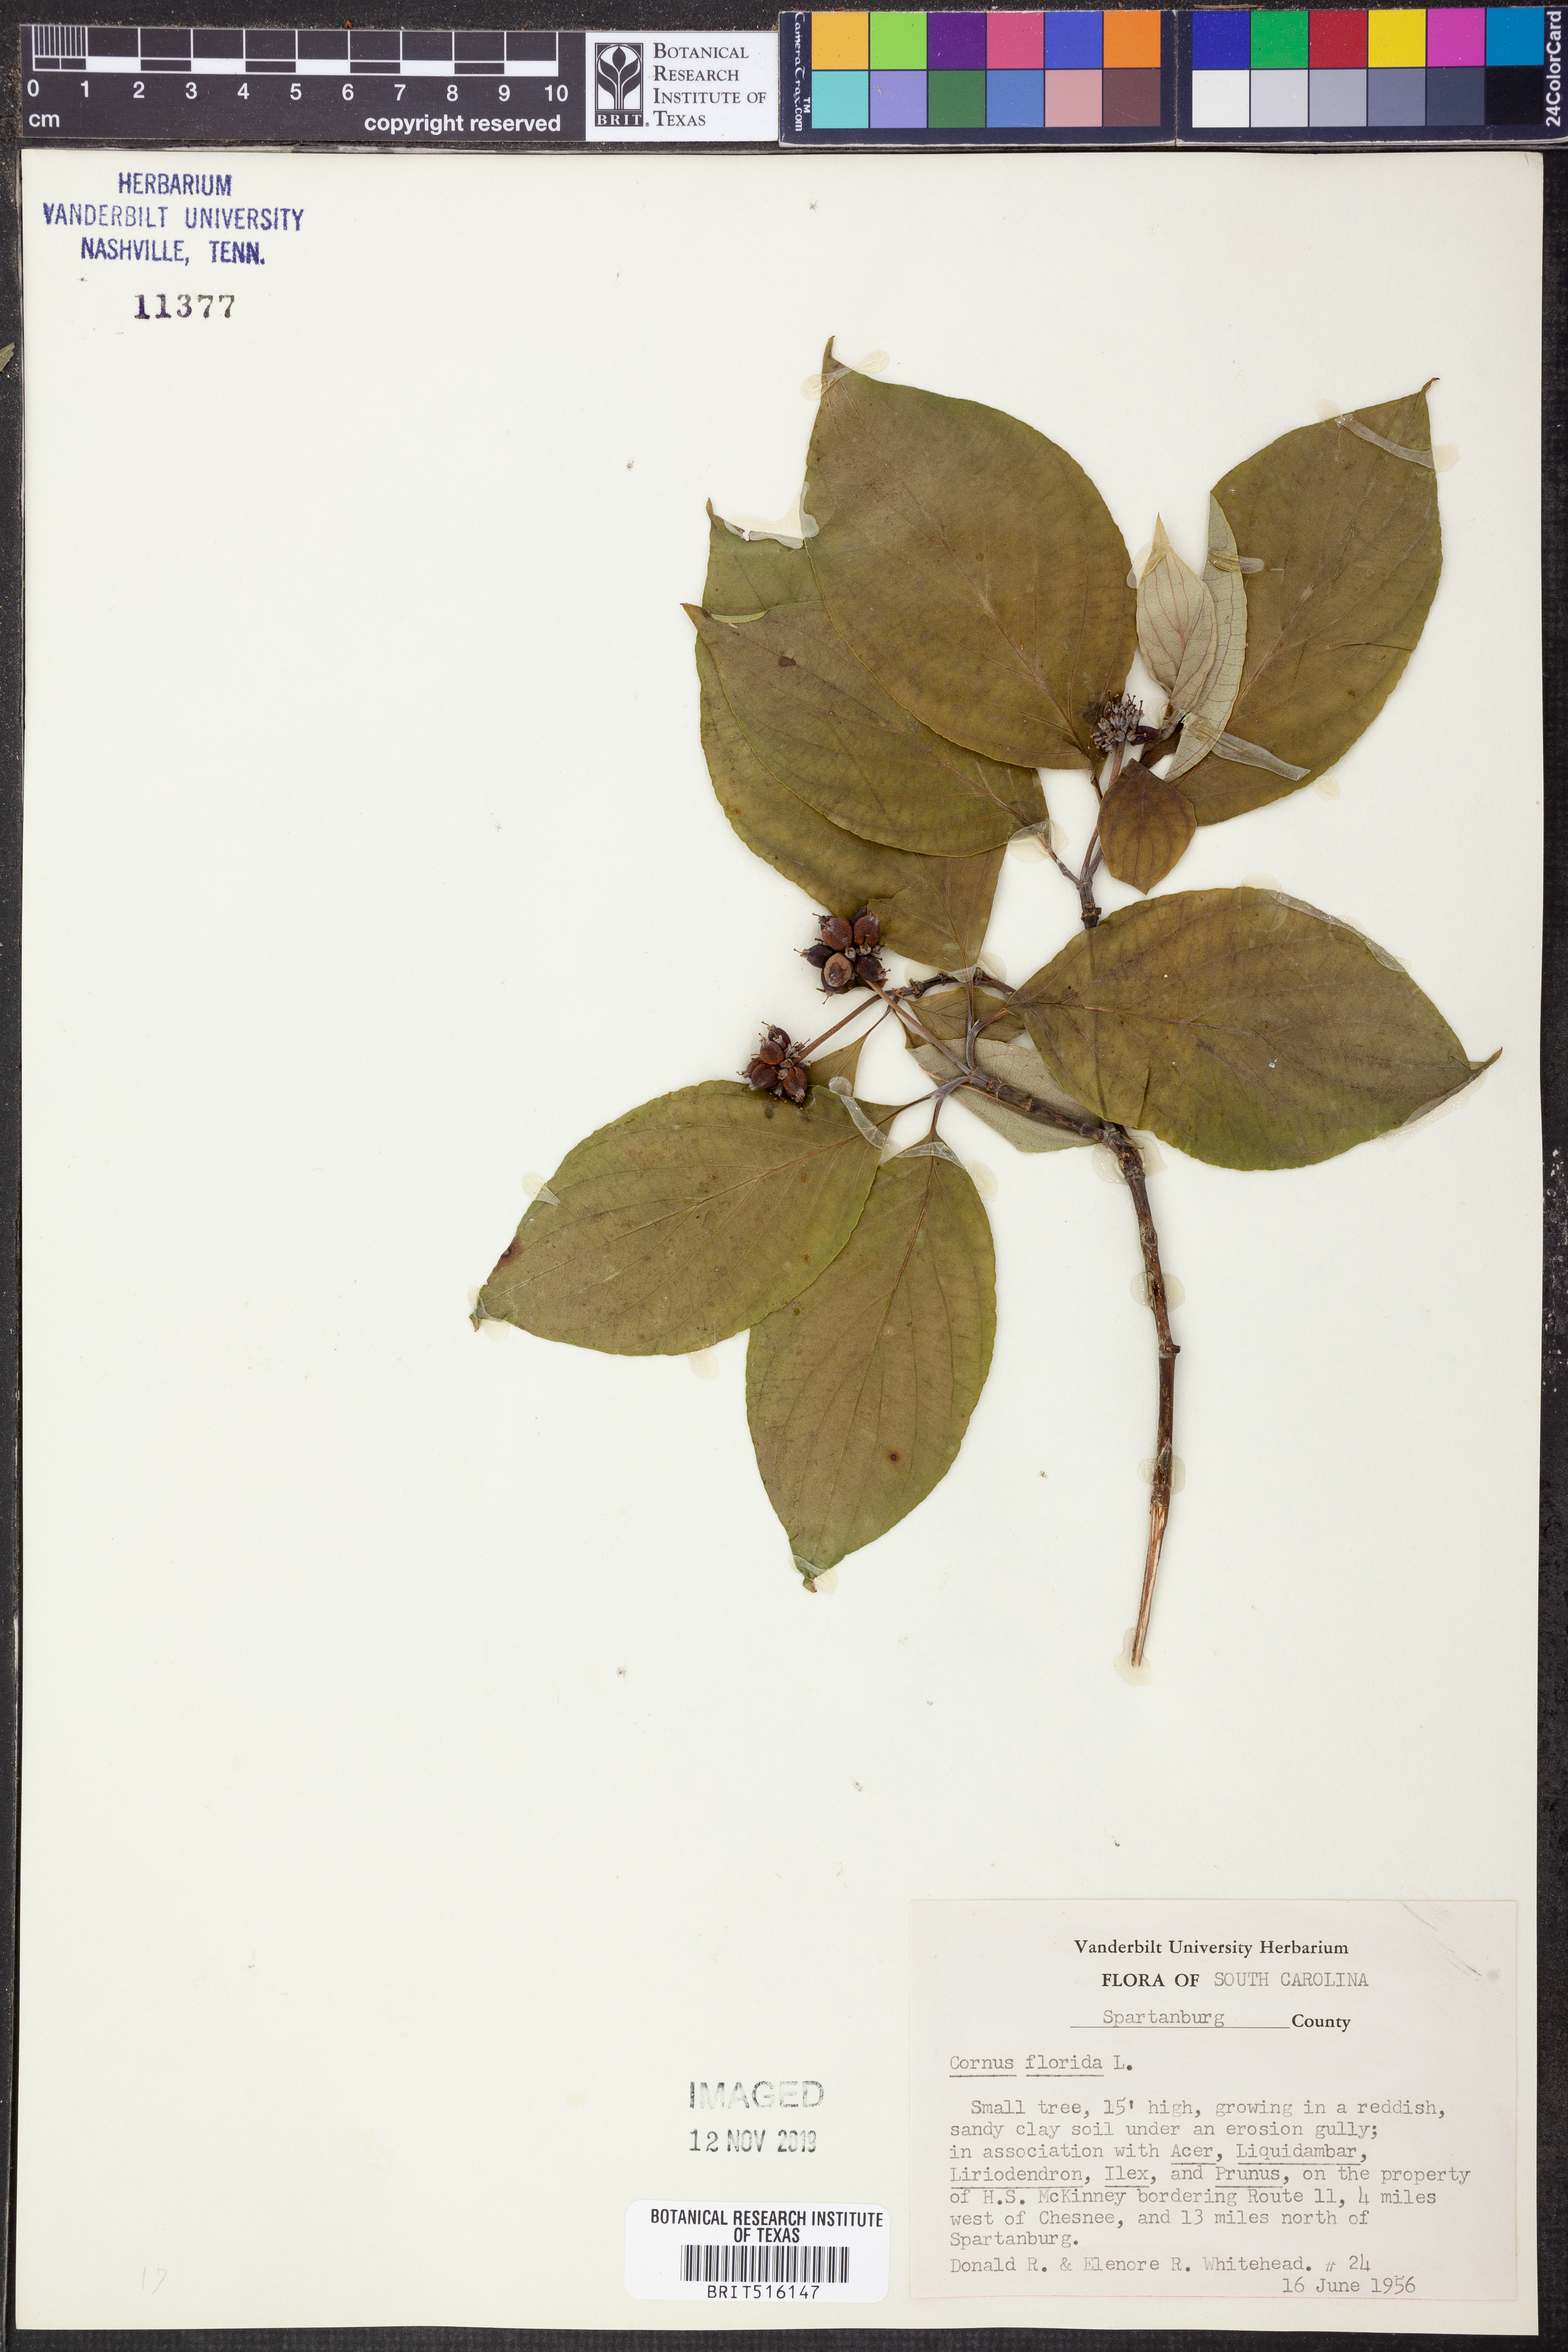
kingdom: Plantae
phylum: Tracheophyta
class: Magnoliopsida
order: Cornales
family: Cornaceae
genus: Cornus
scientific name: Cornus florida
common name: Flowering dogwood
